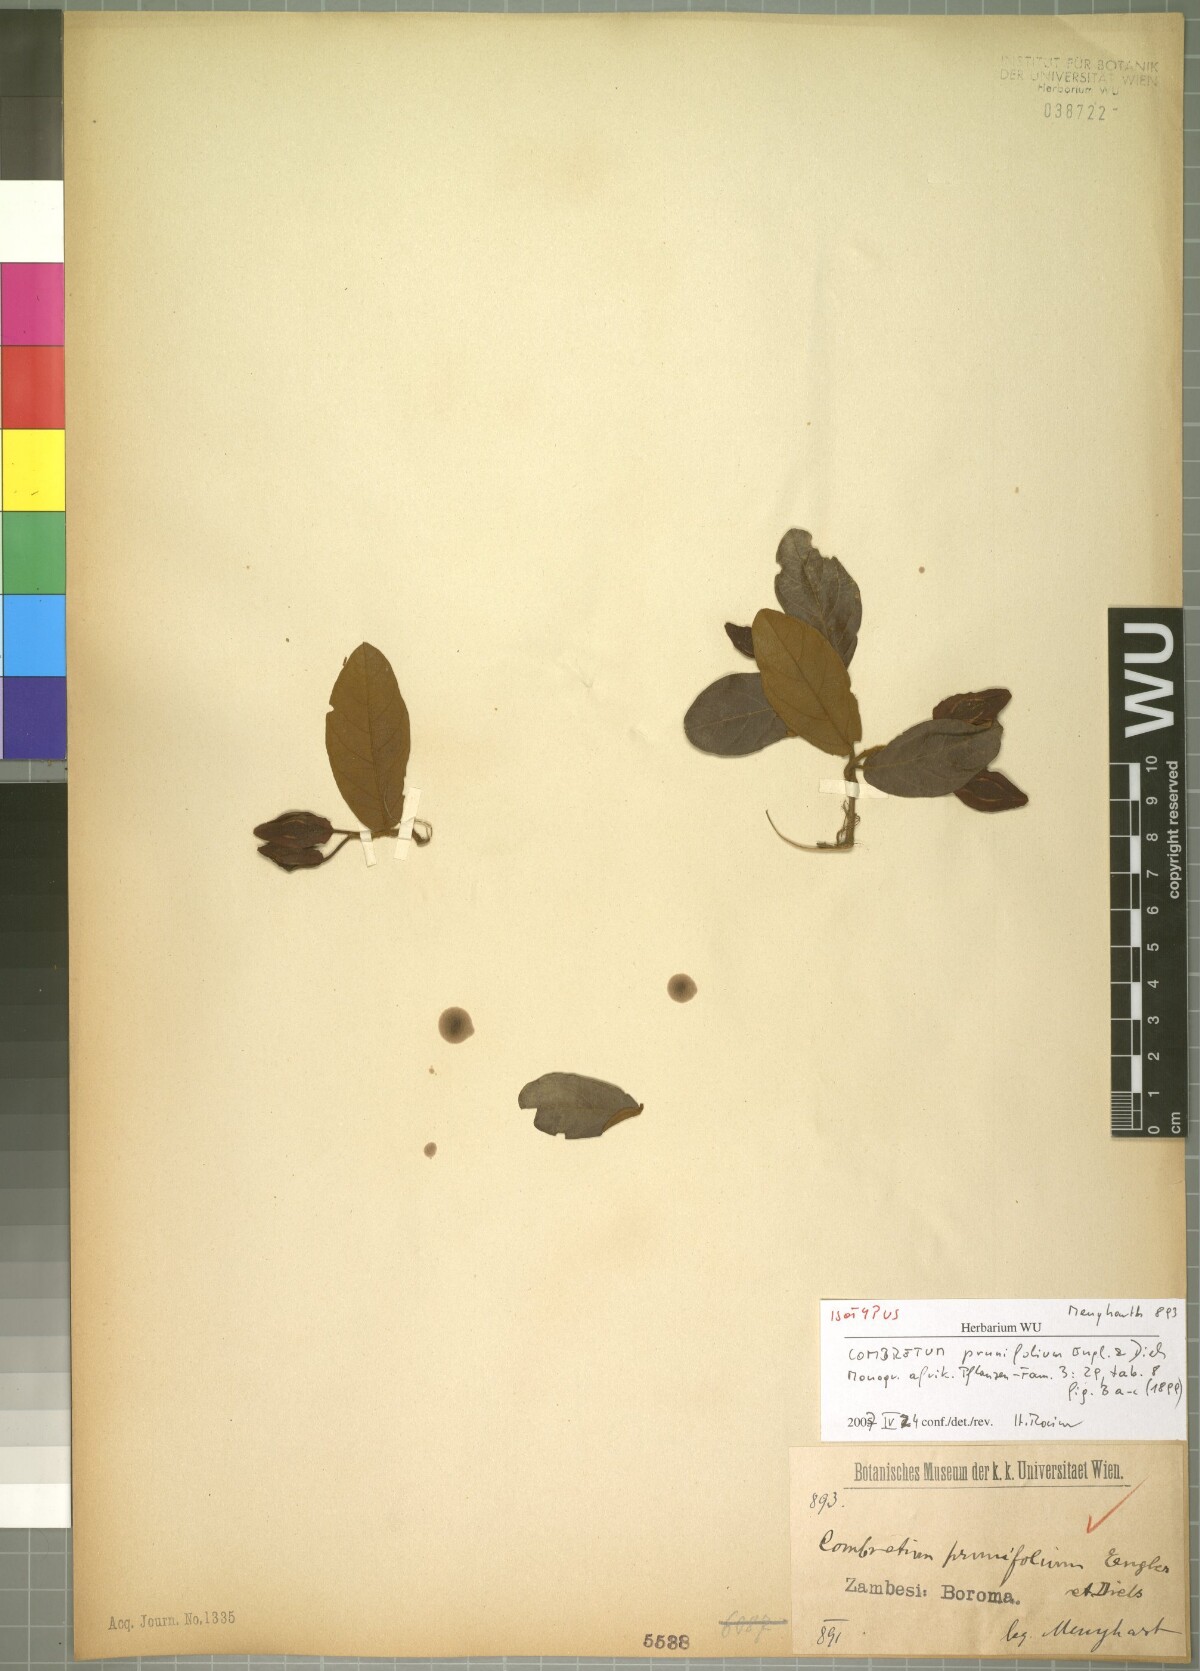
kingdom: Plantae
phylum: Tracheophyta
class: Magnoliopsida
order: Myrtales
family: Combretaceae
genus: Combretum
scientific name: Combretum elaeagnoides
